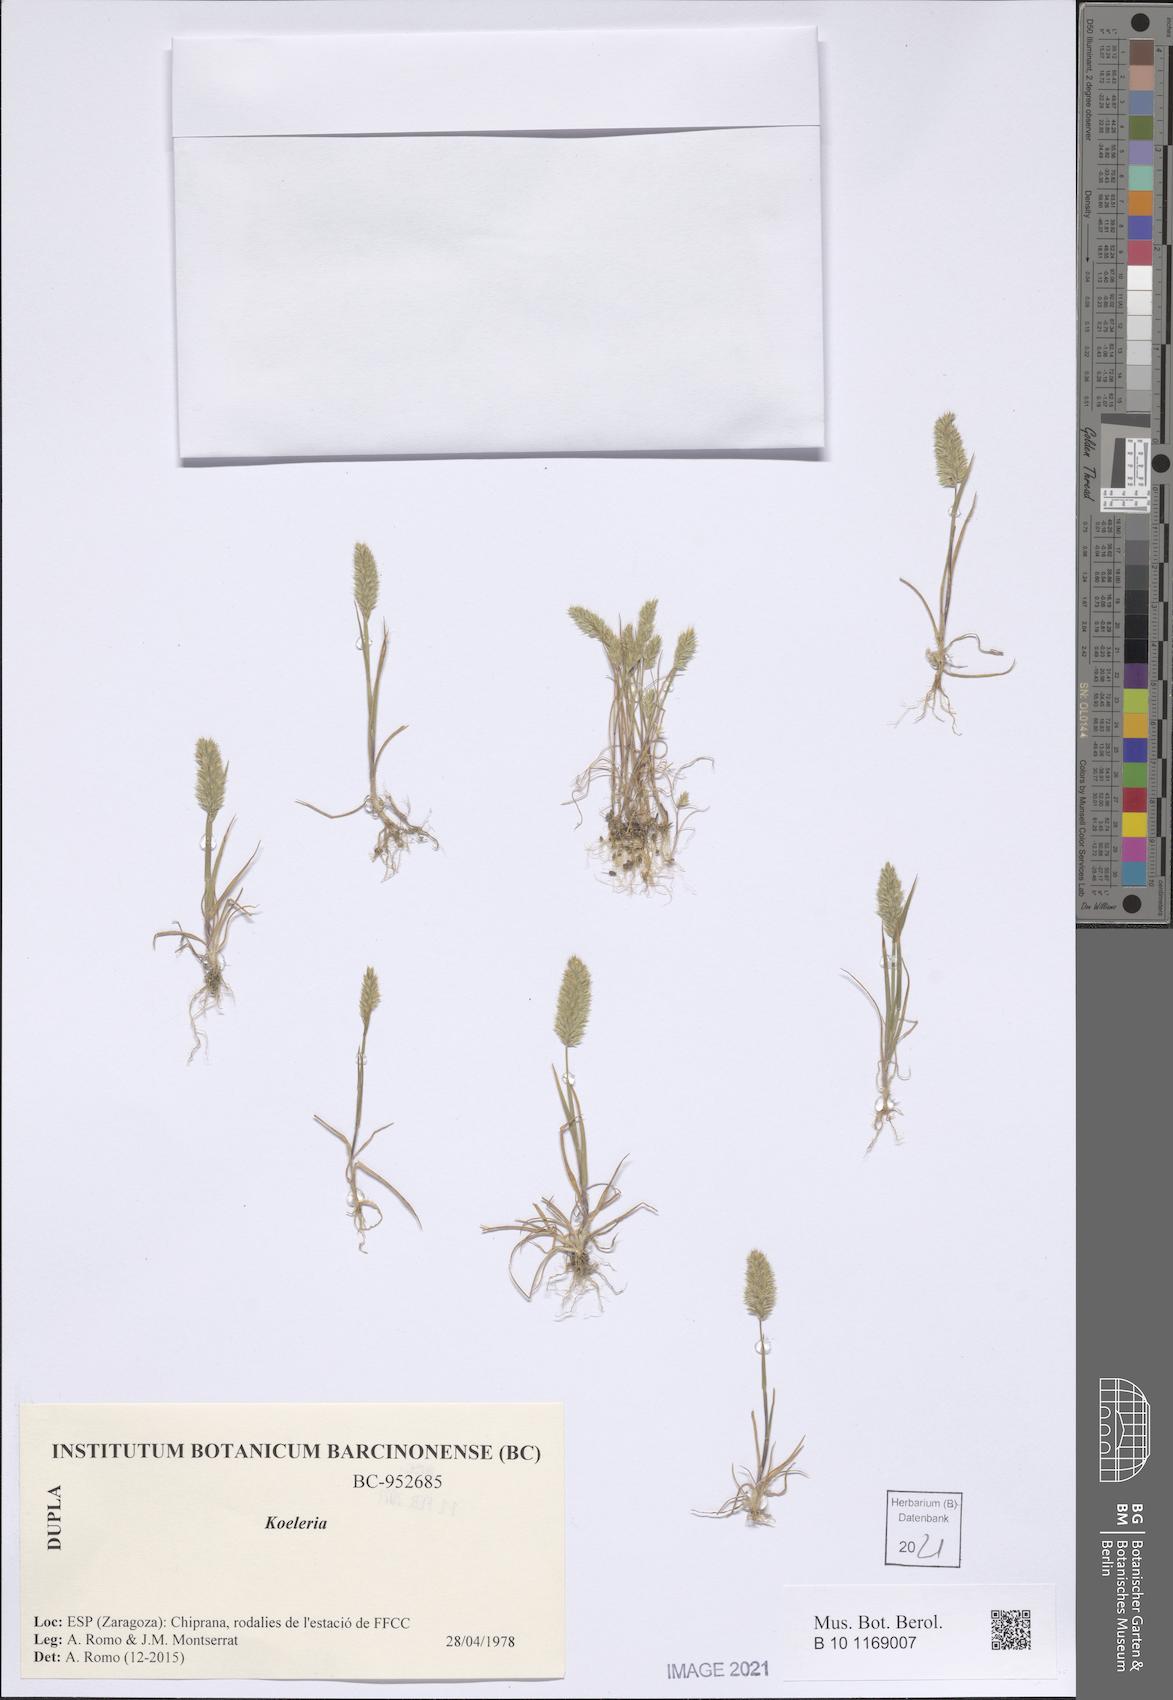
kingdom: Plantae
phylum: Tracheophyta
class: Liliopsida
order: Poales
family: Poaceae
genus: Koeleria
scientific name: Koeleria
